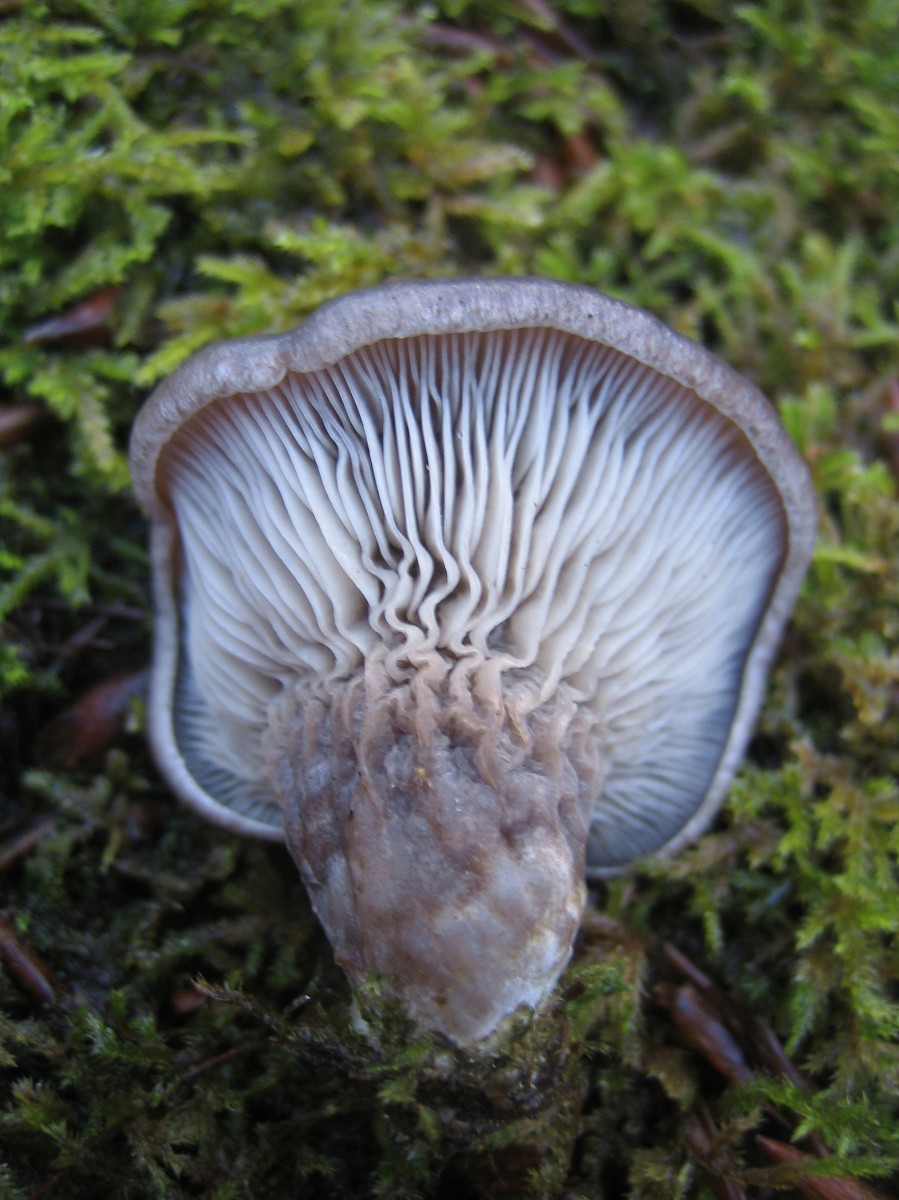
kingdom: Fungi
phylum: Basidiomycota
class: Agaricomycetes
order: Agaricales
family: Pleurotaceae
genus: Pleurotus
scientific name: Pleurotus ostreatus
